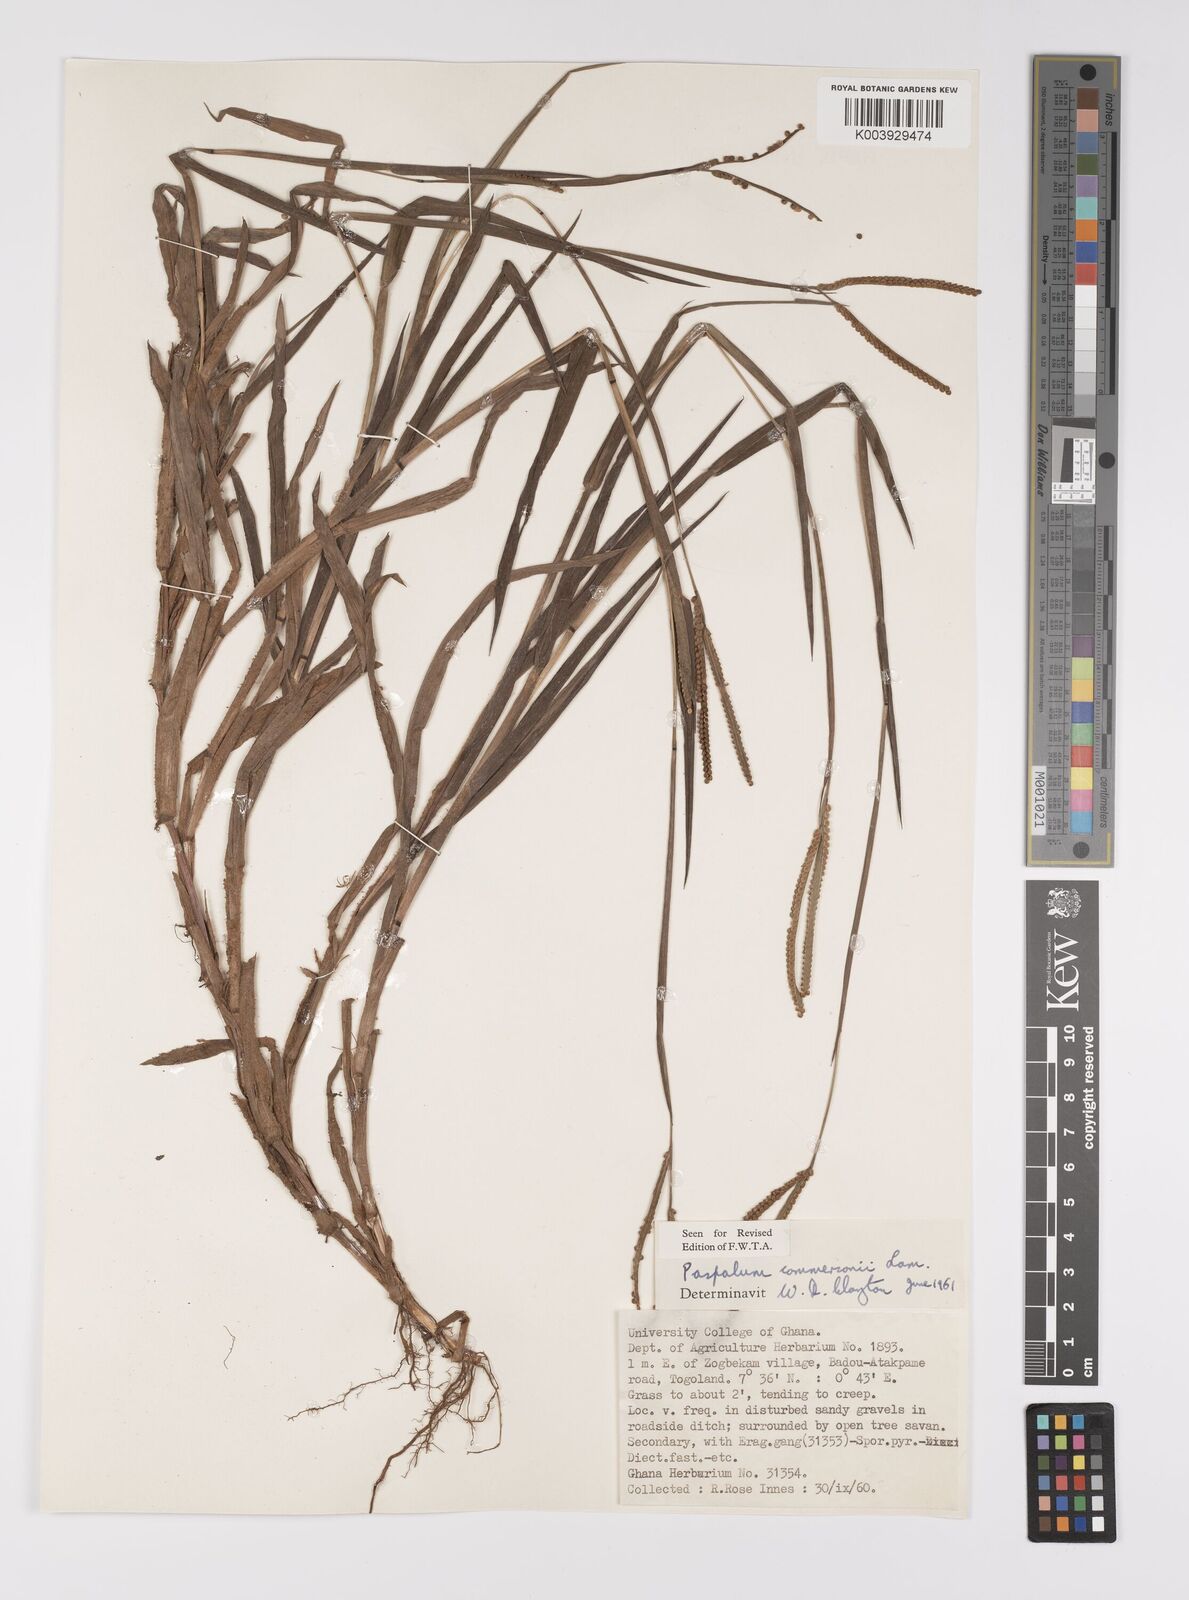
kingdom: Plantae
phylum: Tracheophyta
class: Liliopsida
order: Poales
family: Poaceae
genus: Paspalum
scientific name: Paspalum scrobiculatum
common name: Kodo millet
